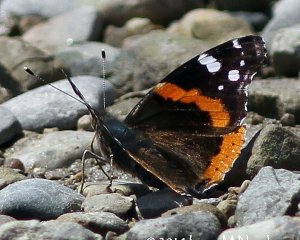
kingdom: Animalia
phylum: Arthropoda
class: Insecta
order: Lepidoptera
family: Nymphalidae
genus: Vanessa
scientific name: Vanessa atalanta
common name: Red Admiral
